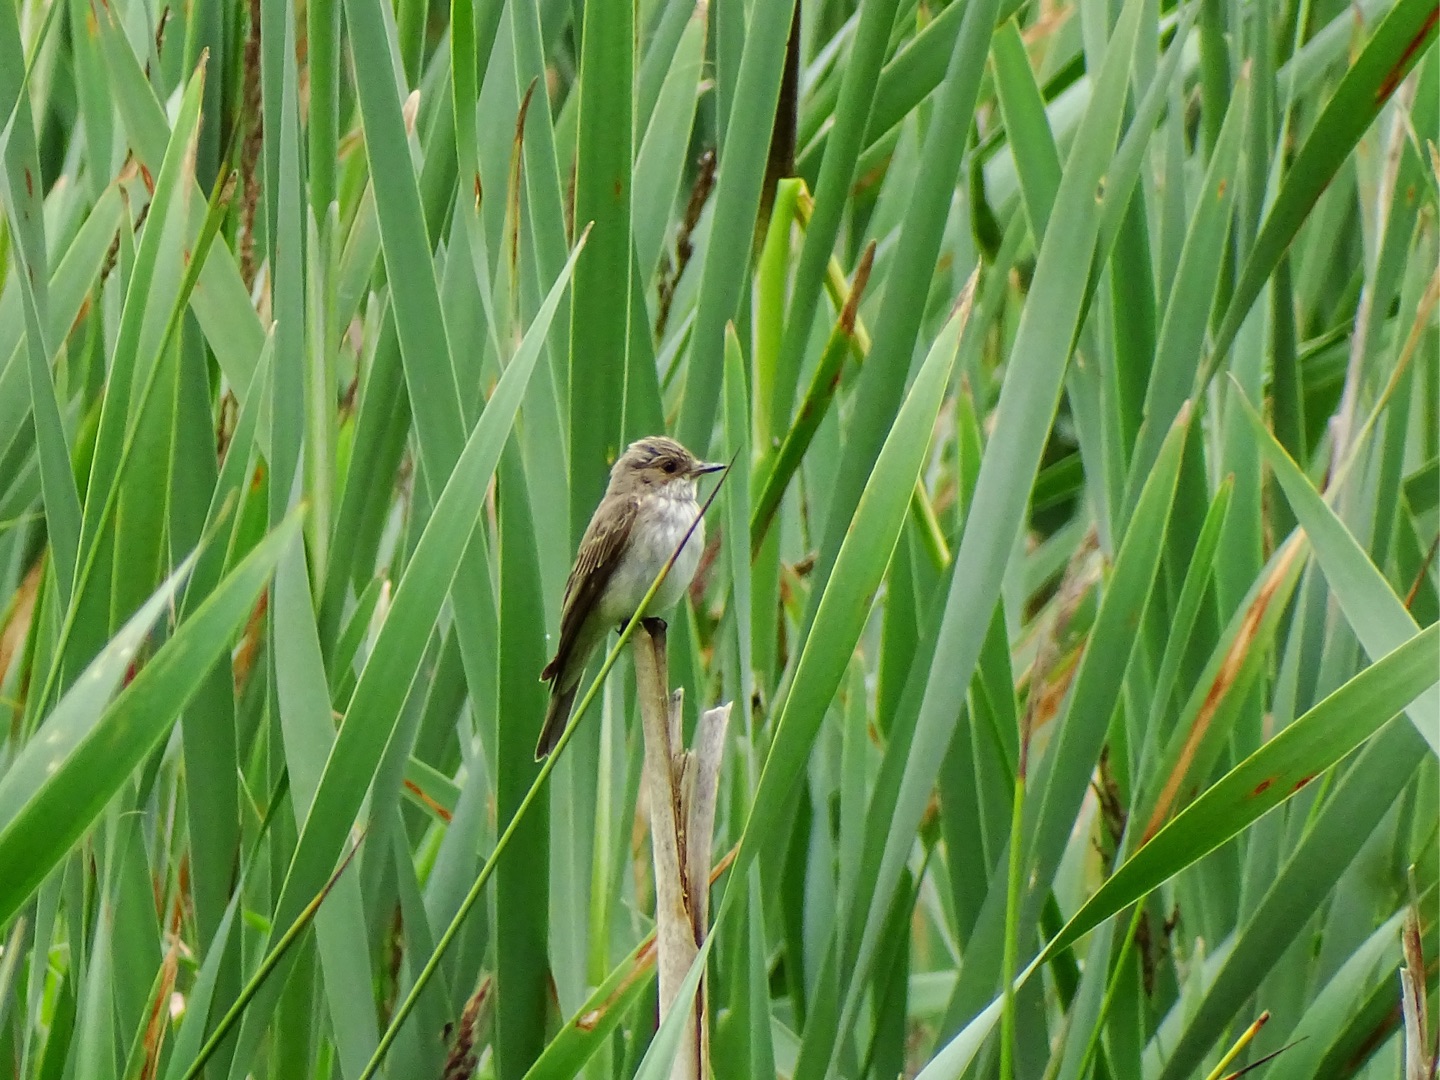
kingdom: Animalia
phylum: Chordata
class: Aves
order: Passeriformes
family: Muscicapidae
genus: Muscicapa
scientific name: Muscicapa striata
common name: Grå fluesnapper
